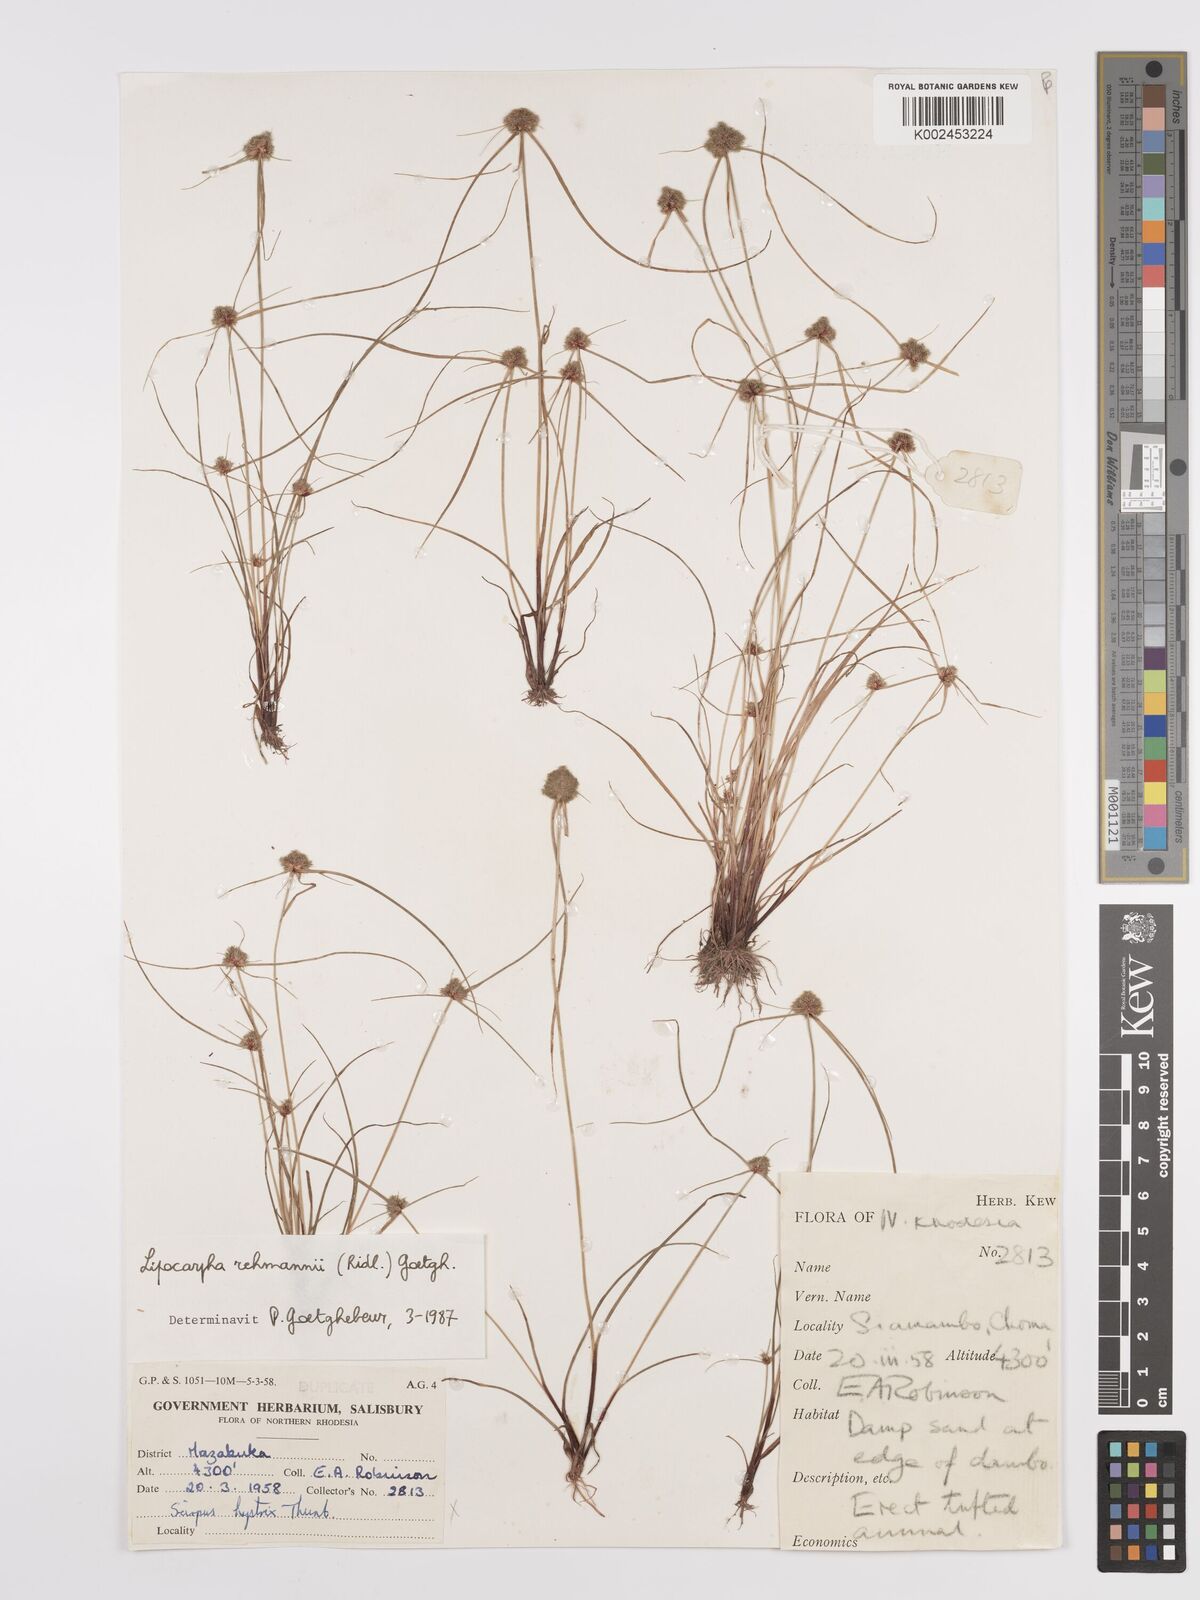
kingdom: Plantae
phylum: Tracheophyta
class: Liliopsida
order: Poales
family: Cyperaceae
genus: Cyperus
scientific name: Cyperus sanguinolentus
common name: Purpleglume flatsedge
